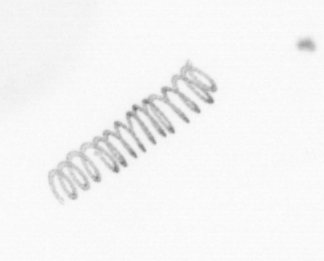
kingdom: Chromista
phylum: Ochrophyta
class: Bacillariophyceae
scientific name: Bacillariophyceae
